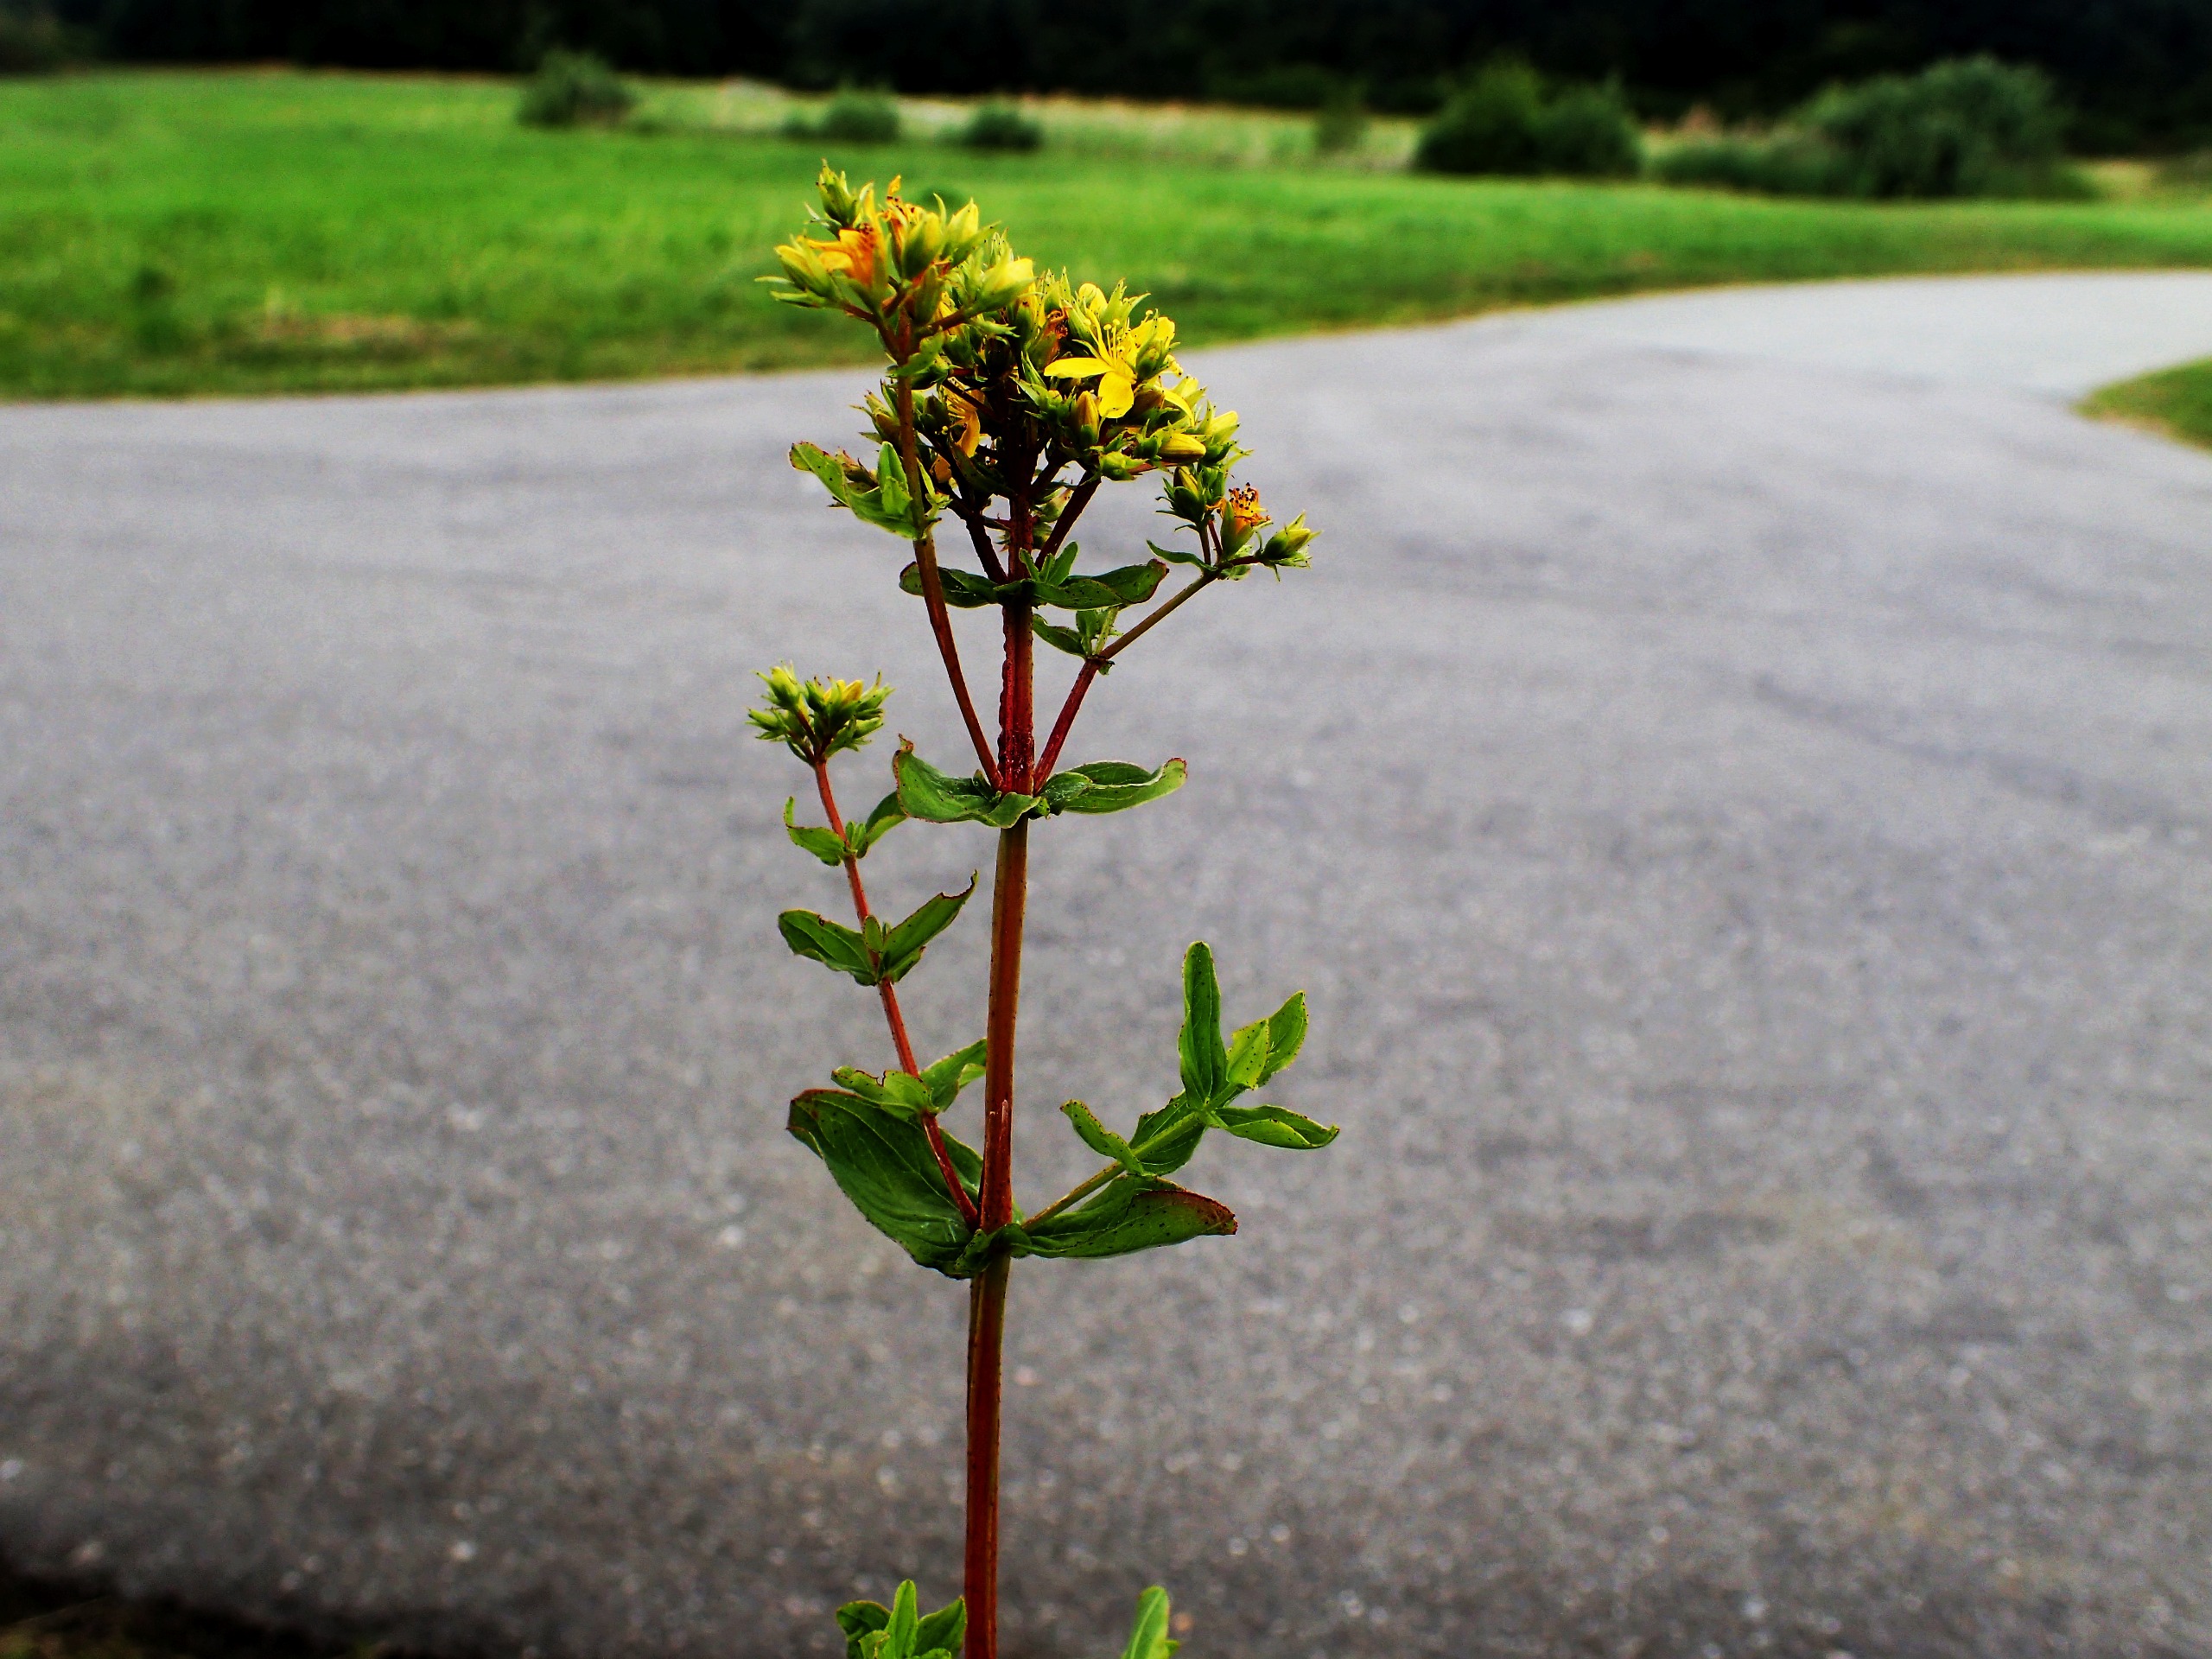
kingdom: Plantae
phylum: Tracheophyta
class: Magnoliopsida
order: Malpighiales
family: Hypericaceae
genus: Hypericum
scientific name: Hypericum tetrapterum
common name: Vinget perikon
